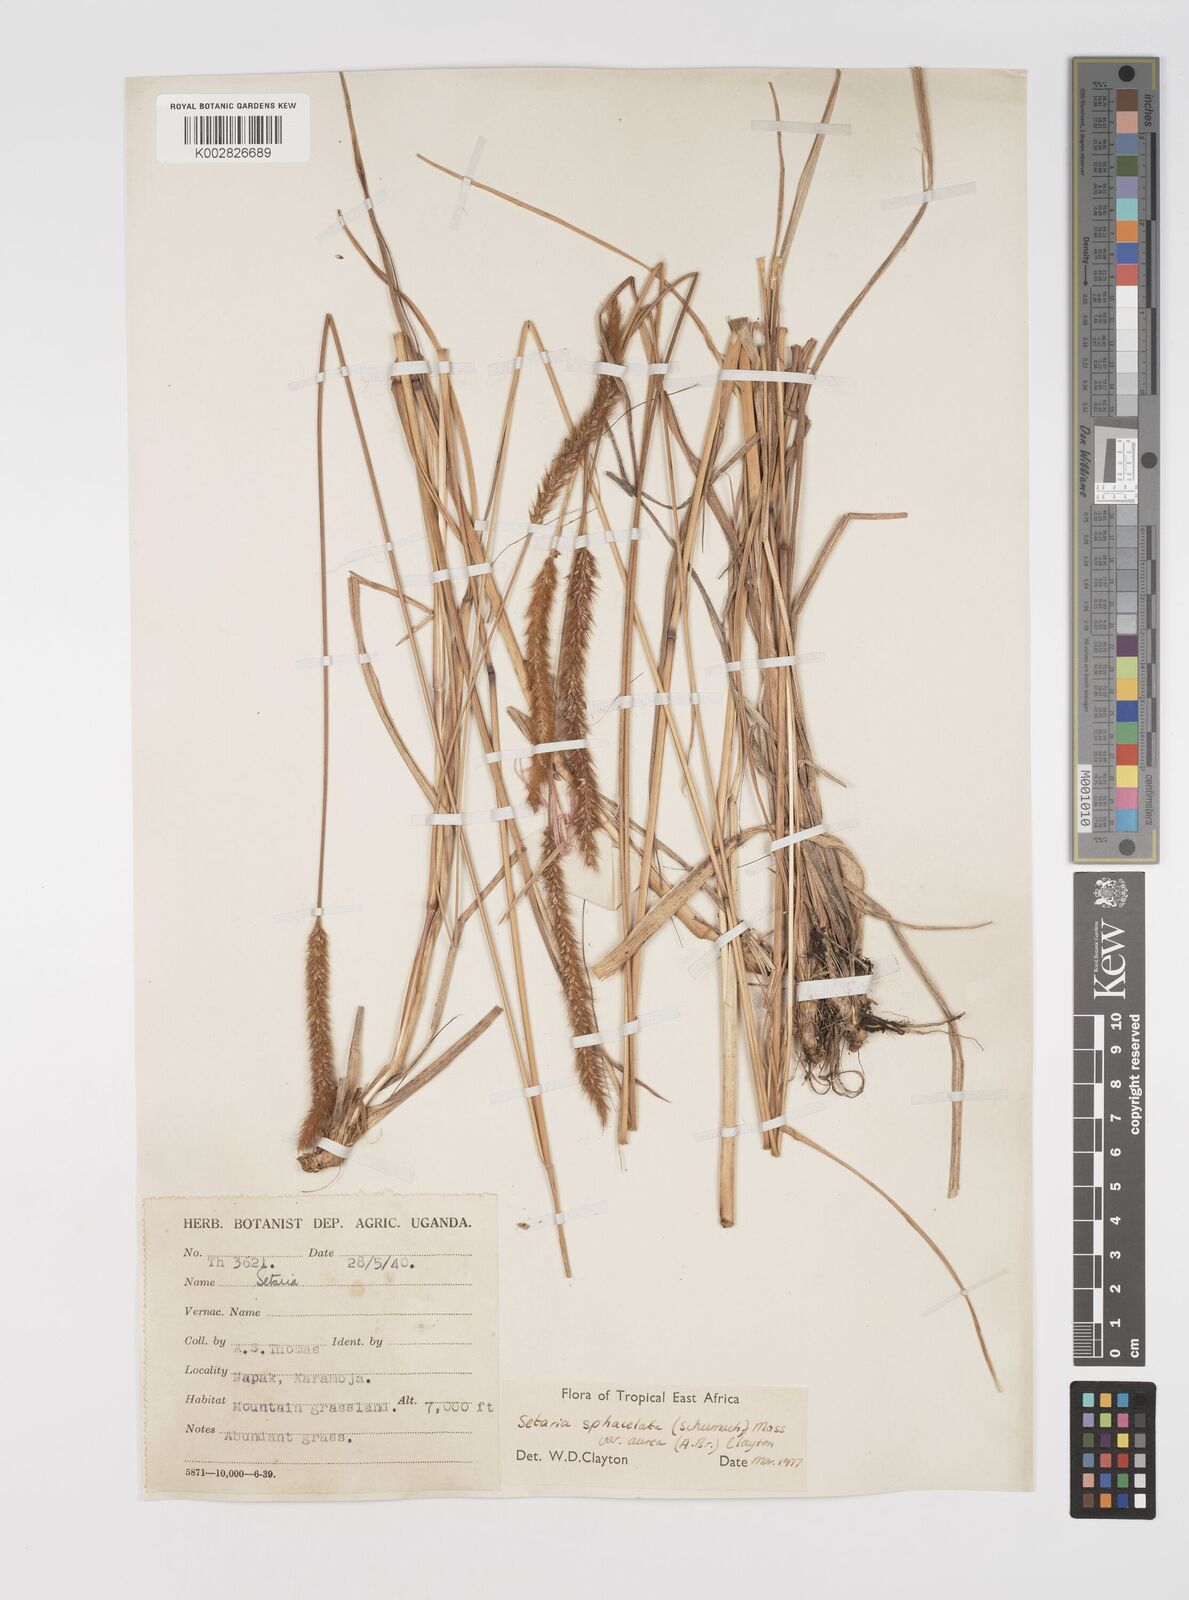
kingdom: Plantae
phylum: Tracheophyta
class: Liliopsida
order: Poales
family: Poaceae
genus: Setaria
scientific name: Setaria sphacelata
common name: African bristlegrass
